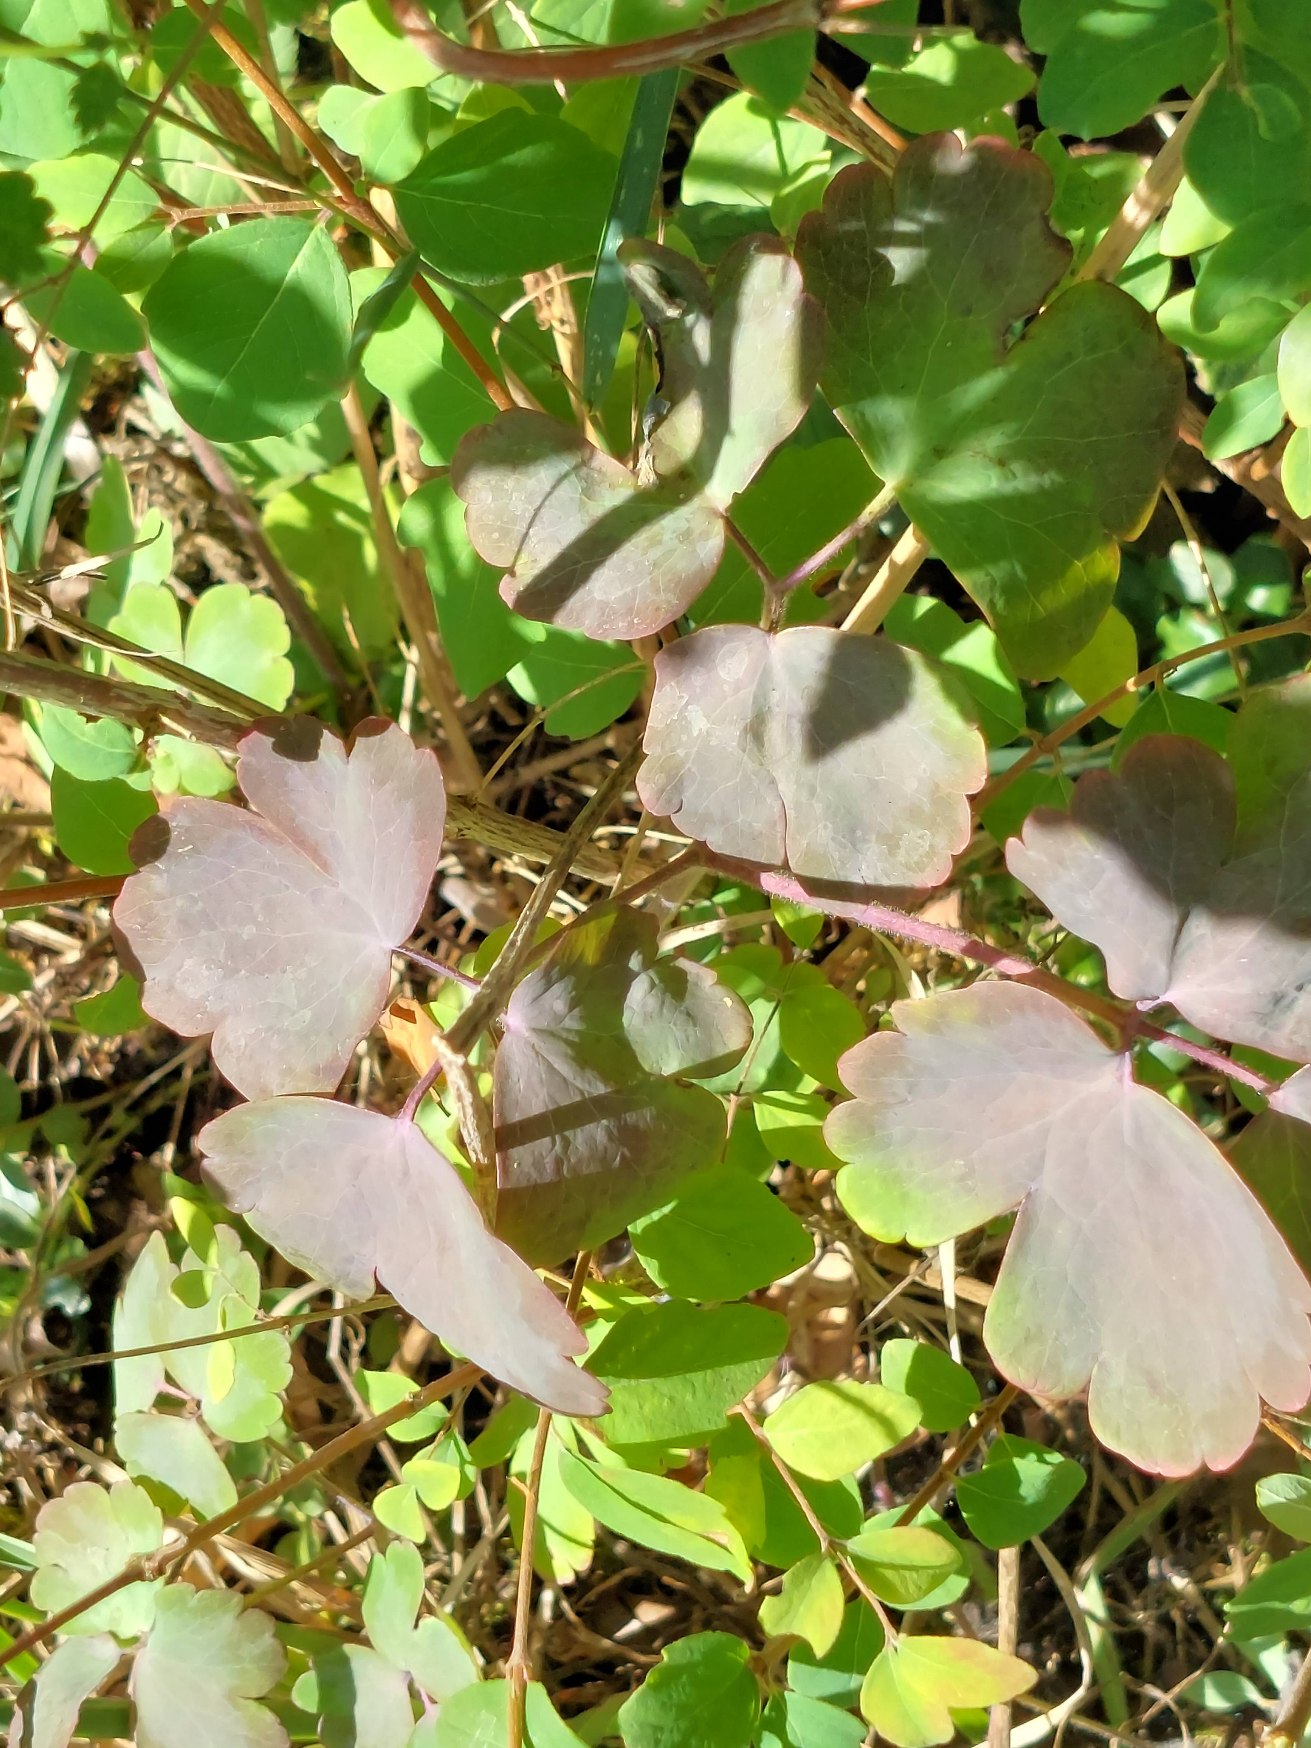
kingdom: Plantae
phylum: Tracheophyta
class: Magnoliopsida
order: Ranunculales
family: Ranunculaceae
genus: Aquilegia
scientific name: Aquilegia vulgaris
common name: Akeleje
